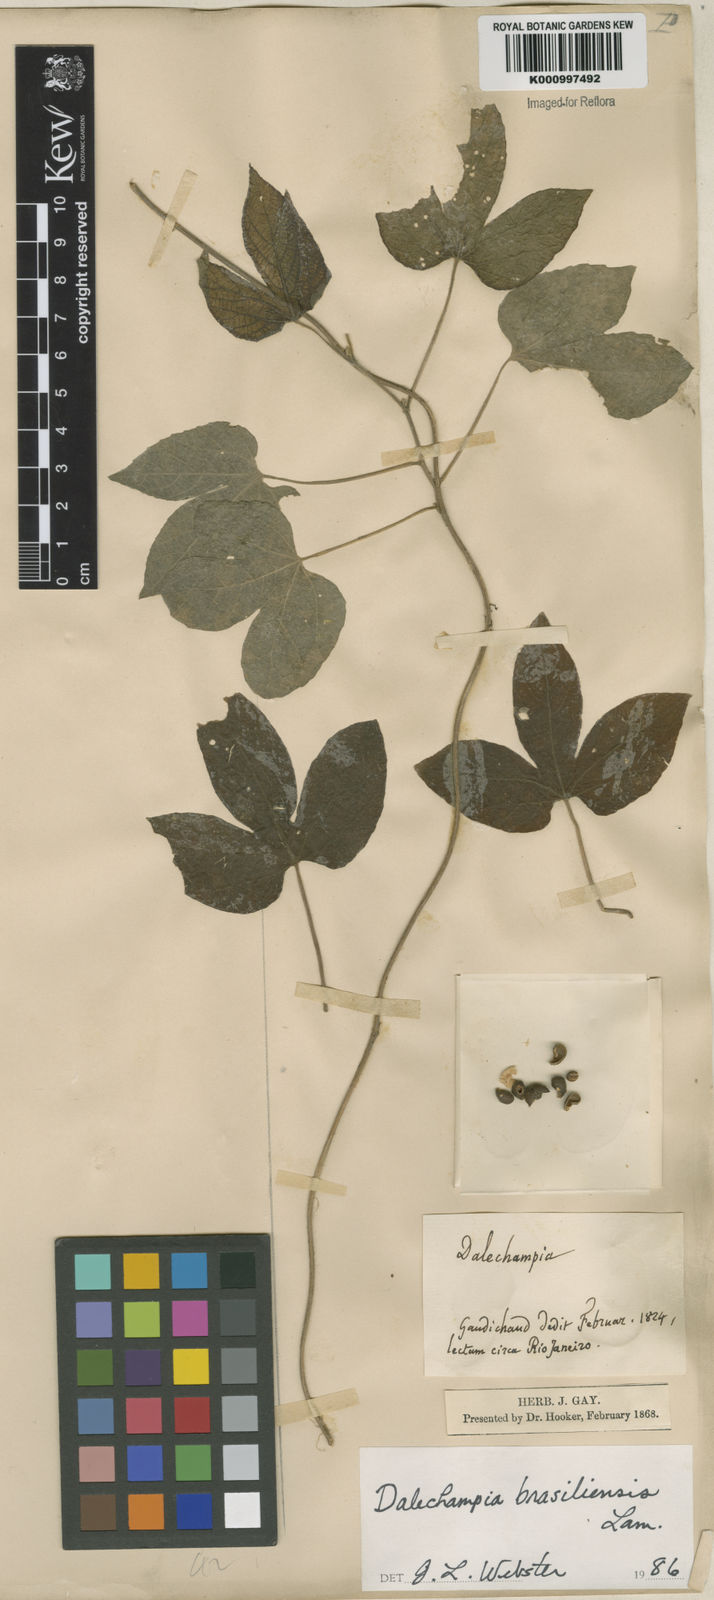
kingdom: Plantae
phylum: Tracheophyta
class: Magnoliopsida
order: Malpighiales
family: Euphorbiaceae
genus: Dalechampia
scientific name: Dalechampia brasiliensis
